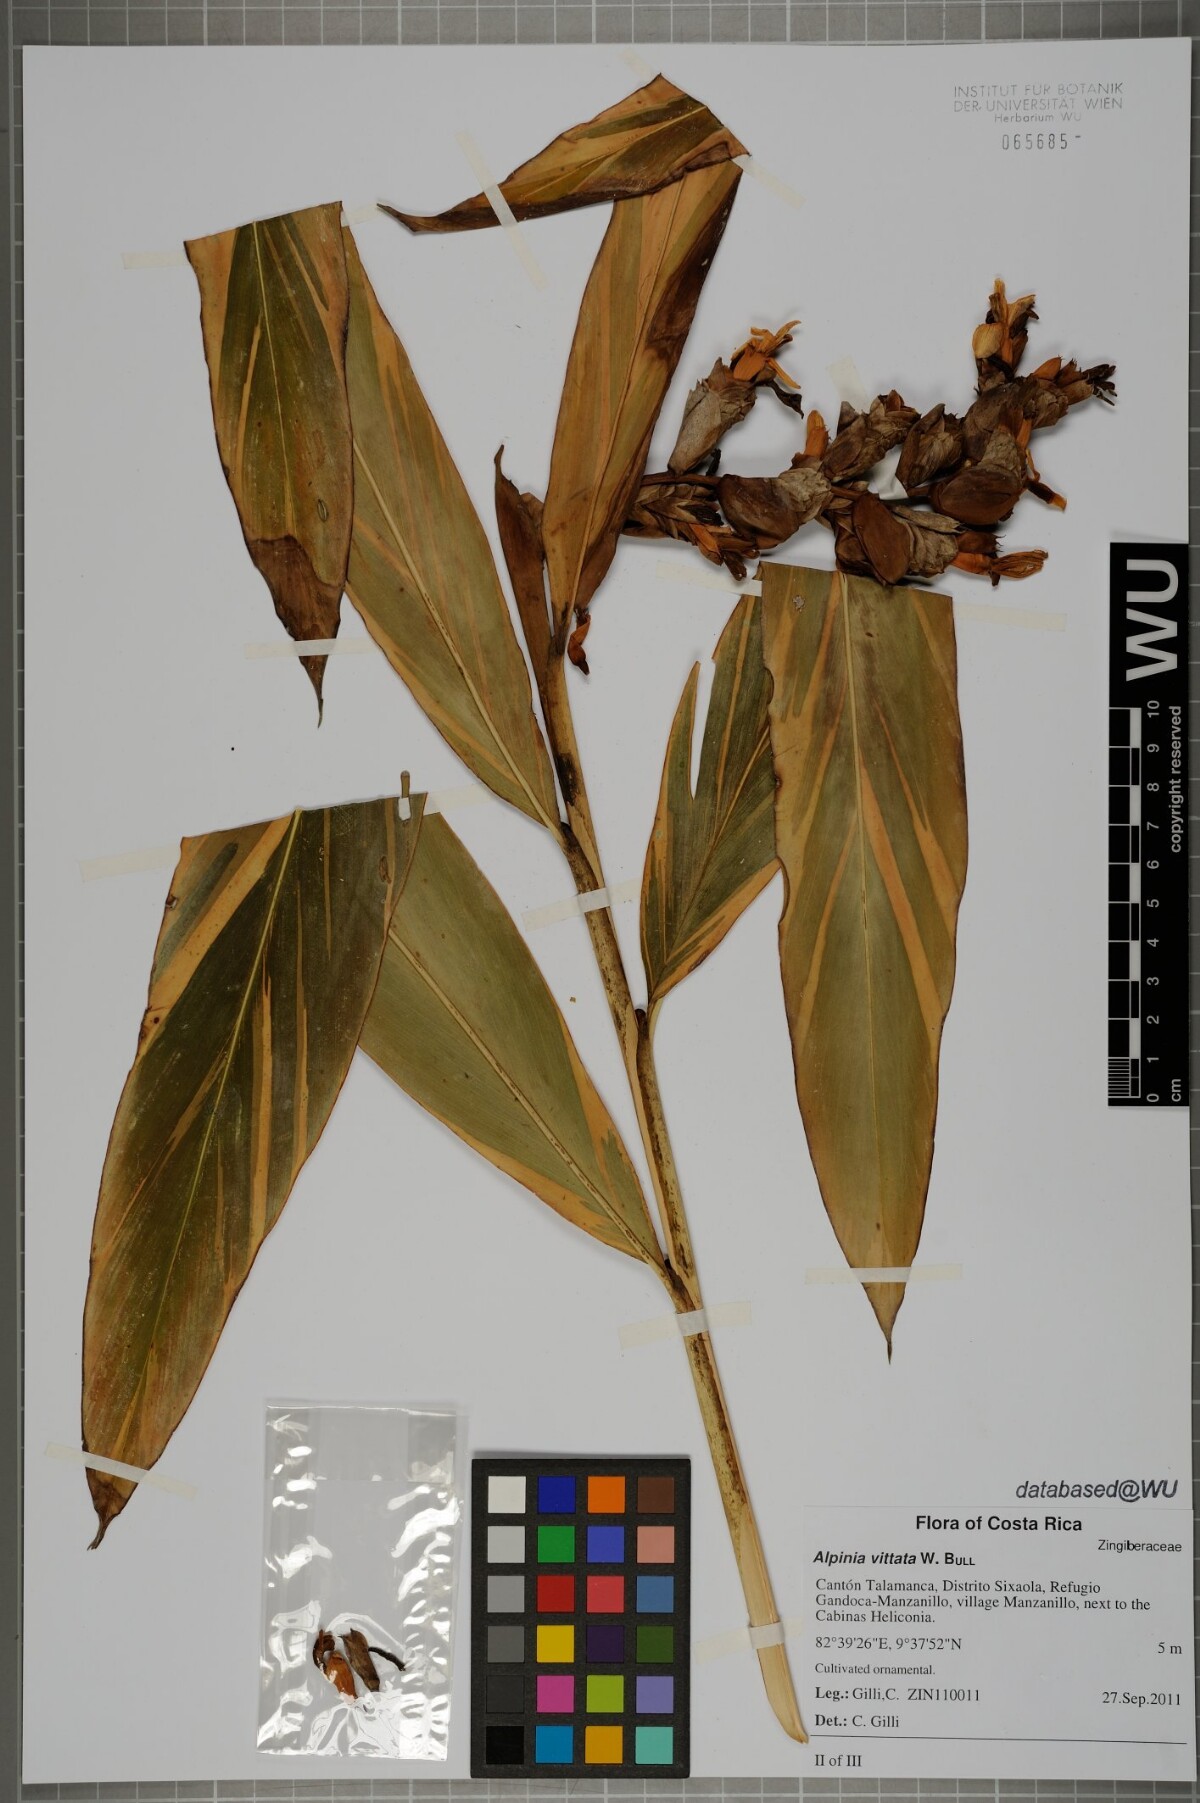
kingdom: Plantae
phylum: Tracheophyta
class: Liliopsida
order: Zingiberales
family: Zingiberaceae
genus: Alpinia
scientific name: Alpinia vittata
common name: Variegate-ginger
